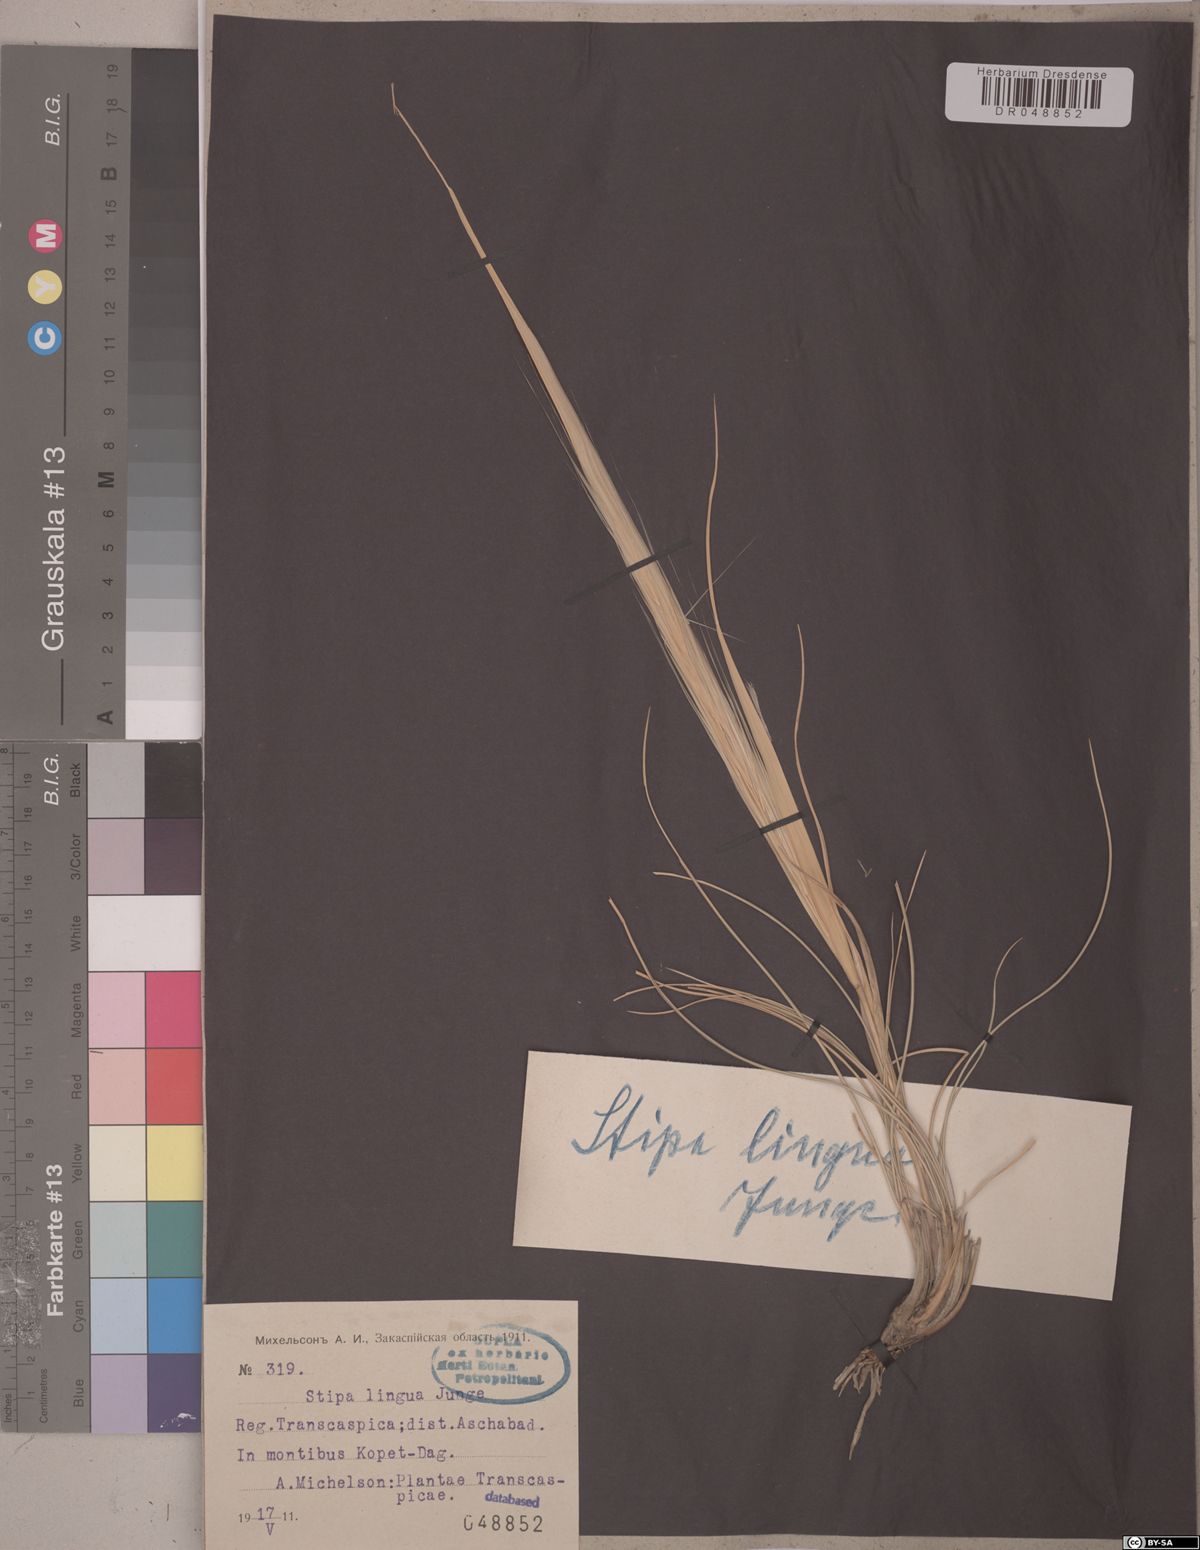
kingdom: Plantae
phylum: Tracheophyta
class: Liliopsida
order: Poales
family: Poaceae
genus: Stipa
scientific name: Stipa lingua
